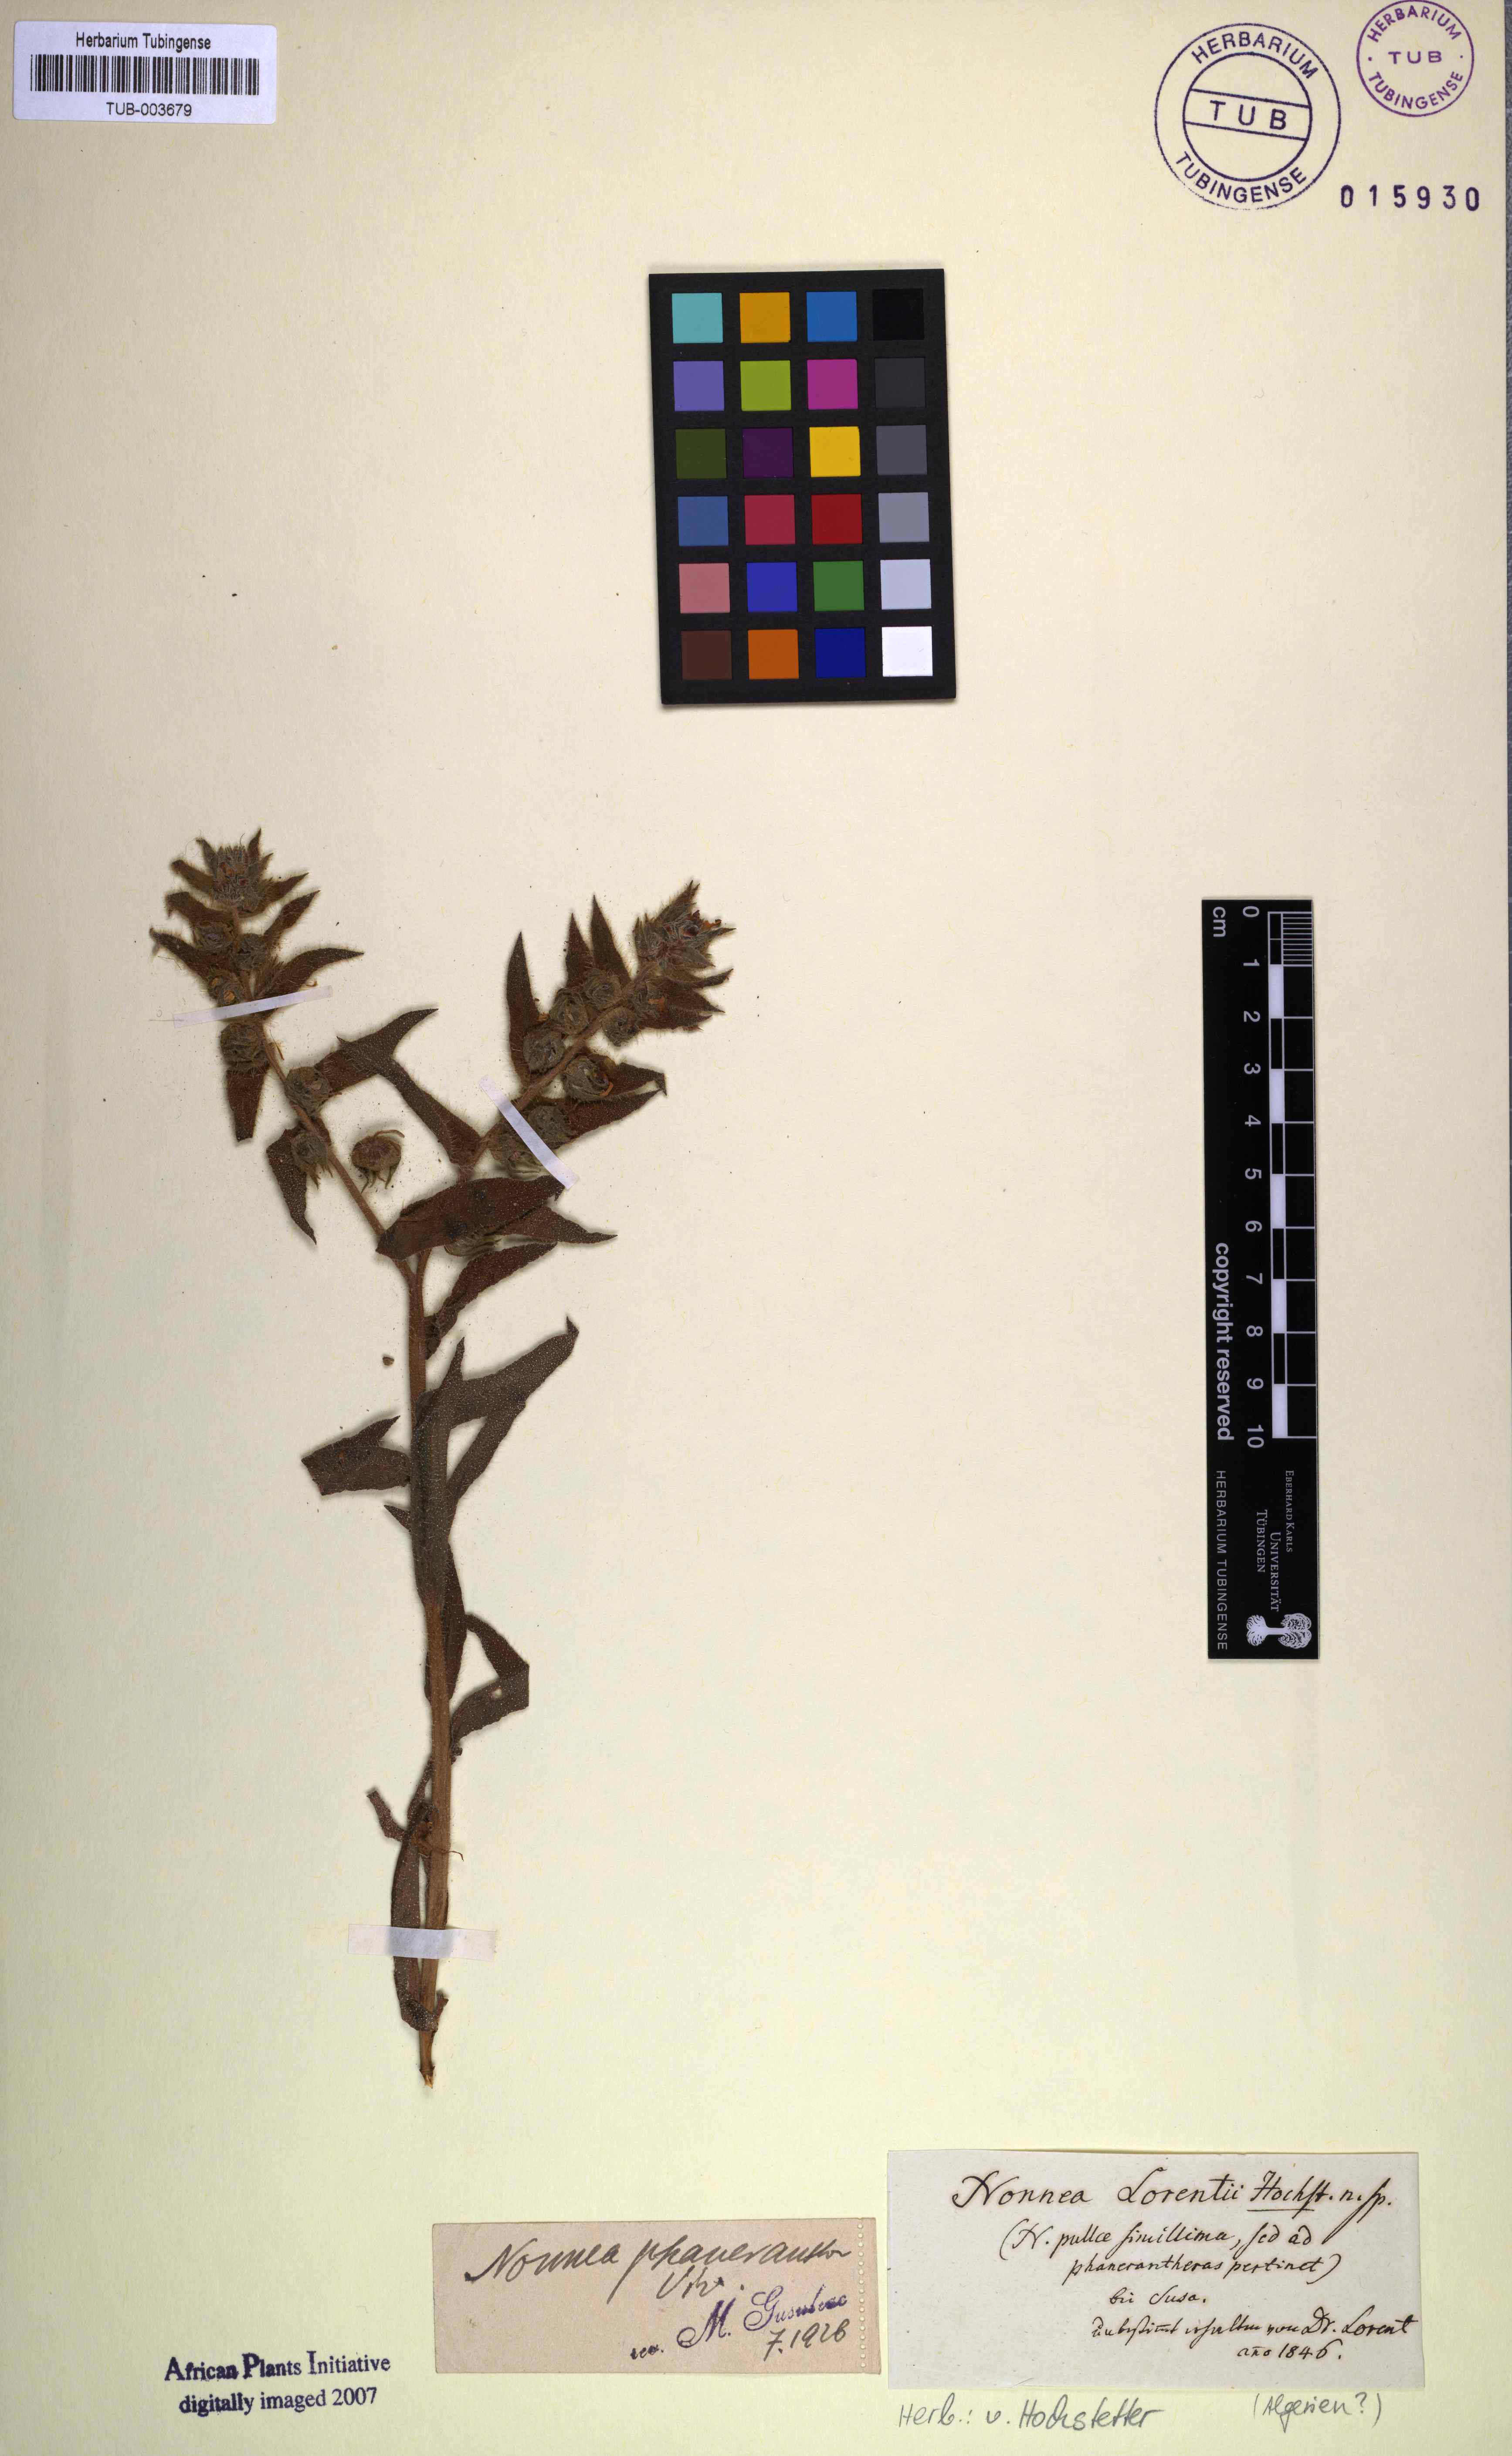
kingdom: Plantae
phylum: Tracheophyta
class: Magnoliopsida
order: Boraginales
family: Boraginaceae
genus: Nonea
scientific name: Nonea calycina
